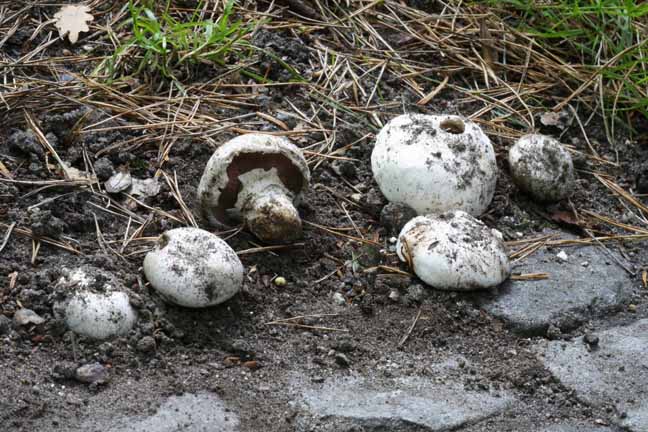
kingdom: Fungi
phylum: Basidiomycota
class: Agaricomycetes
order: Agaricales
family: Agaricaceae
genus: Agaricus
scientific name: Agaricus bitorquis
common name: vej-champignon
